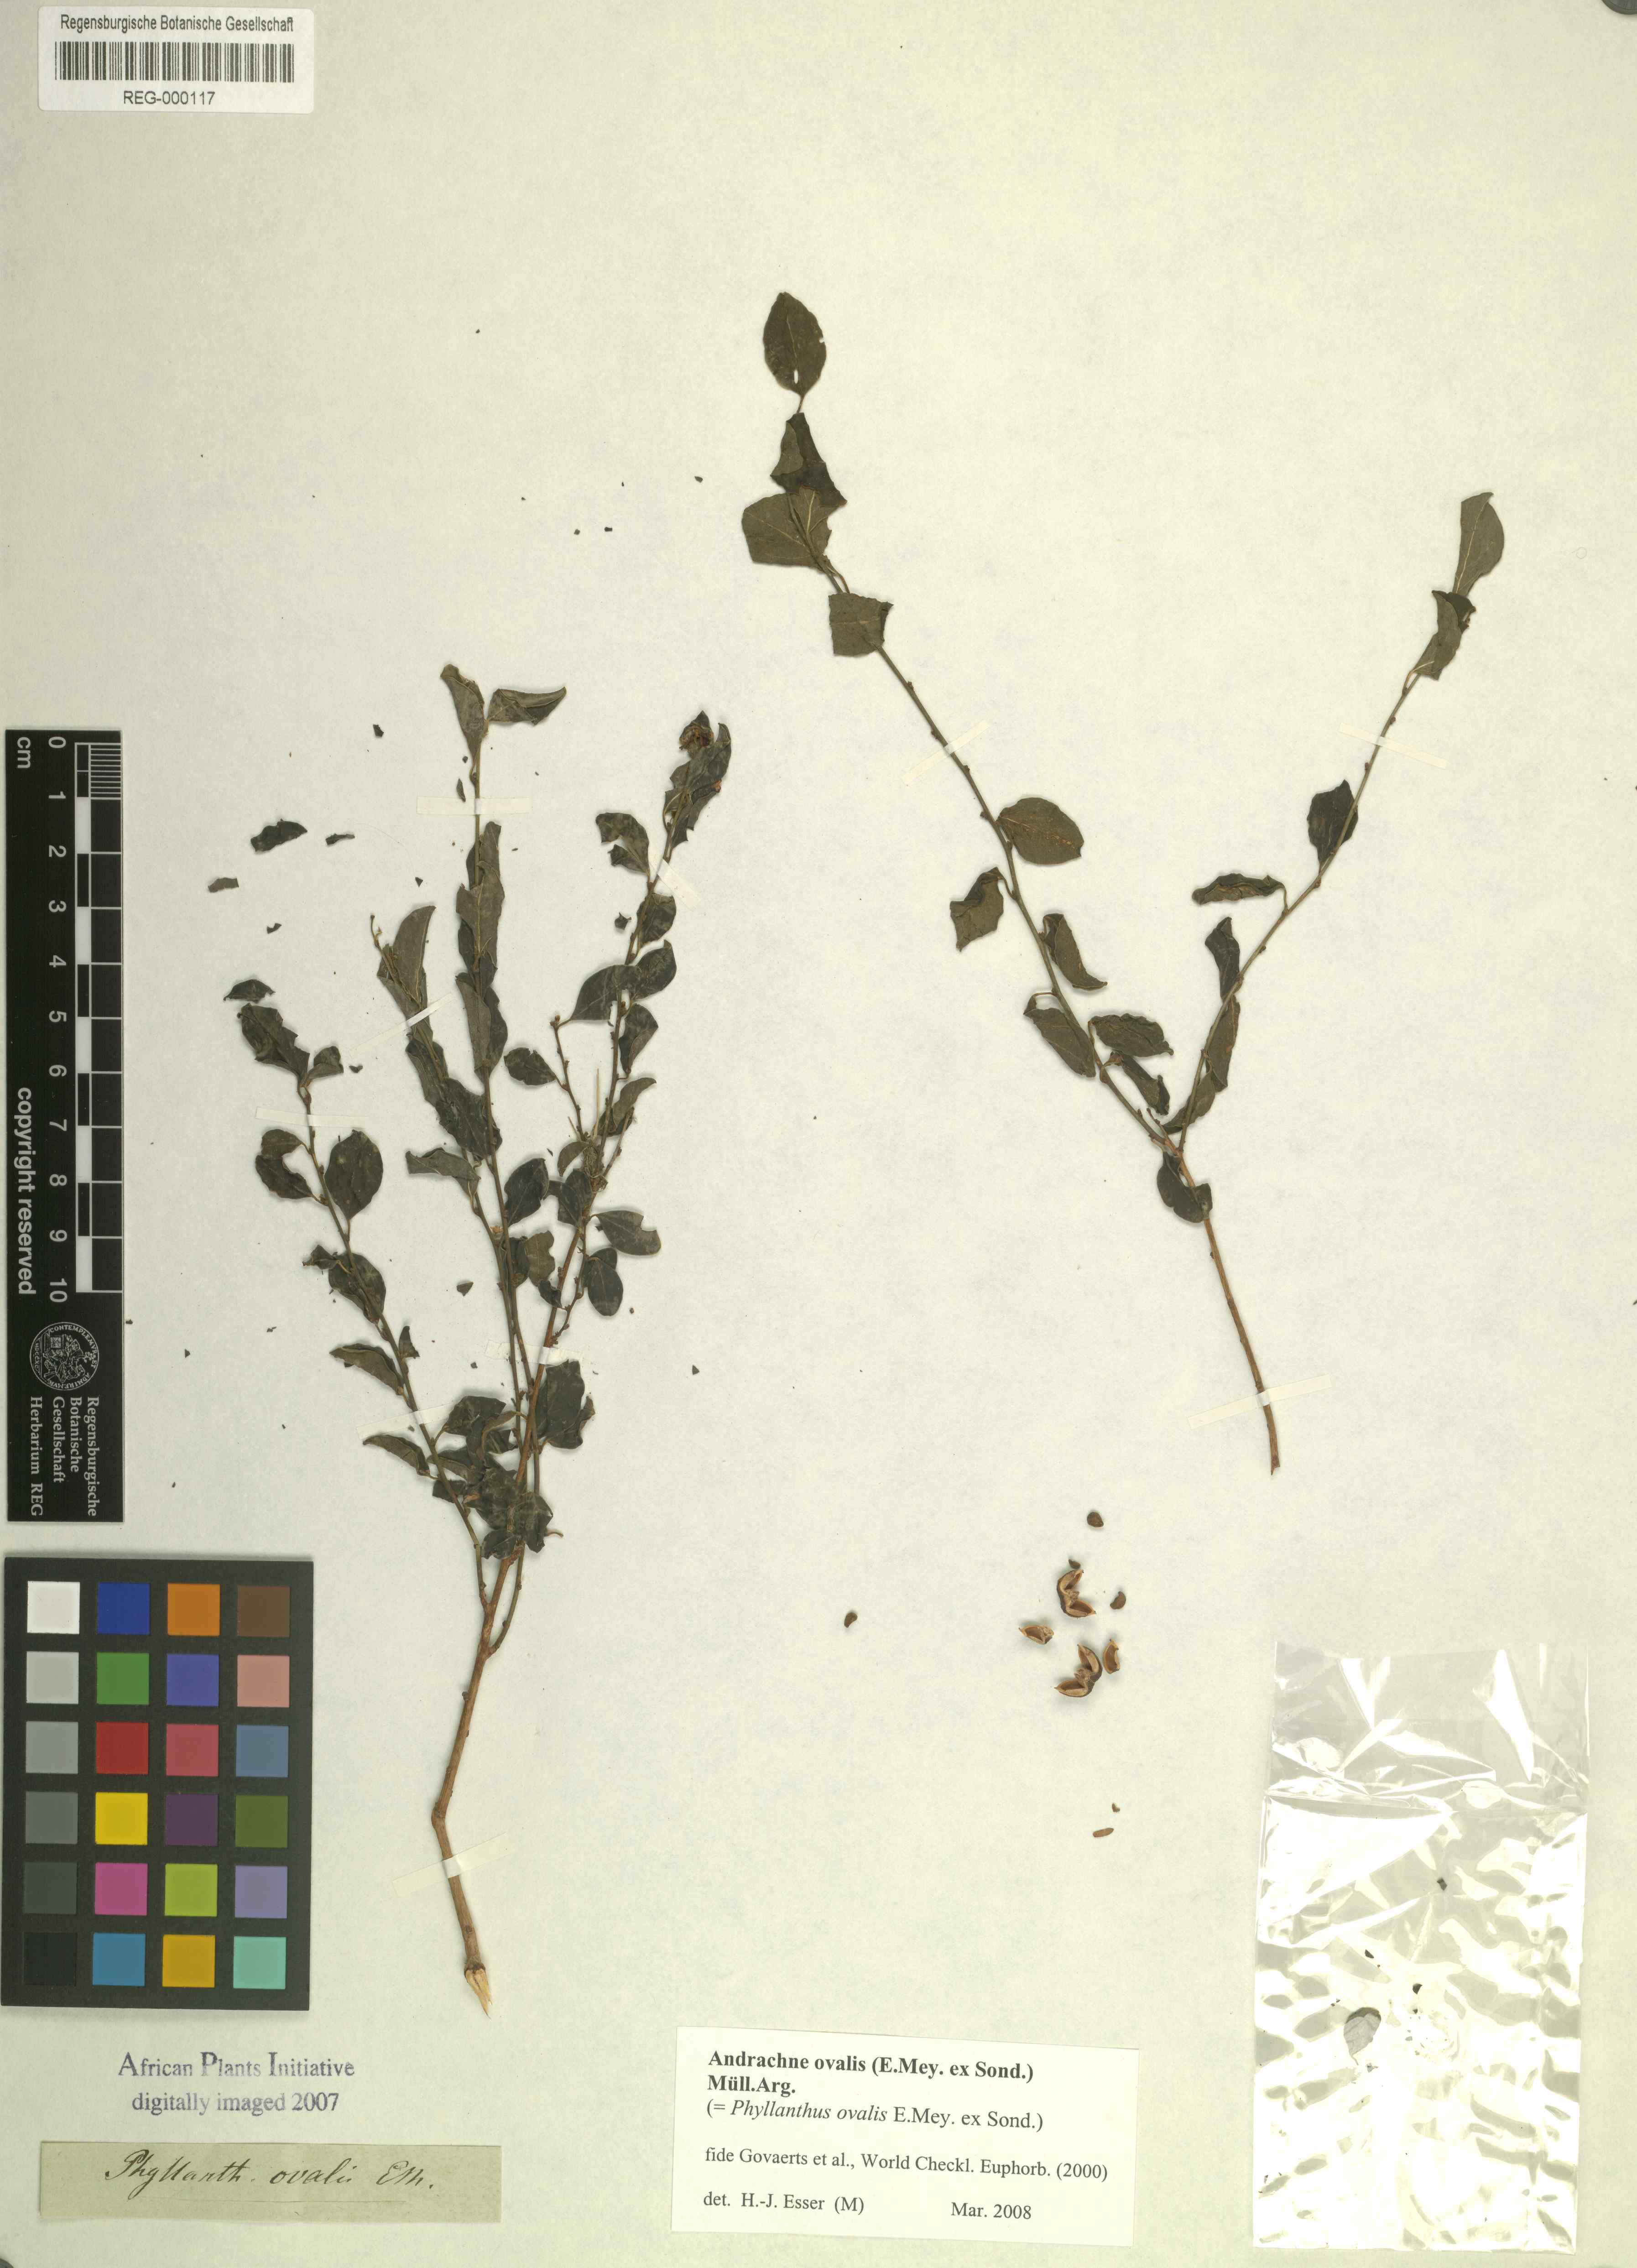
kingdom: Plantae
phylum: Tracheophyta
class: Magnoliopsida
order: Malpighiales
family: Phyllanthaceae
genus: Pseudophyllanthus
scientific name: Pseudophyllanthus ovalis
